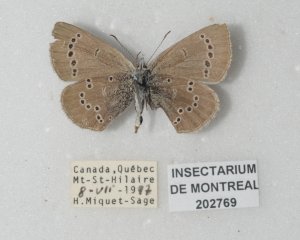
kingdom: Animalia
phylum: Arthropoda
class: Insecta
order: Lepidoptera
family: Lycaenidae
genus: Glaucopsyche
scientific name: Glaucopsyche lygdamus
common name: Silvery Blue
